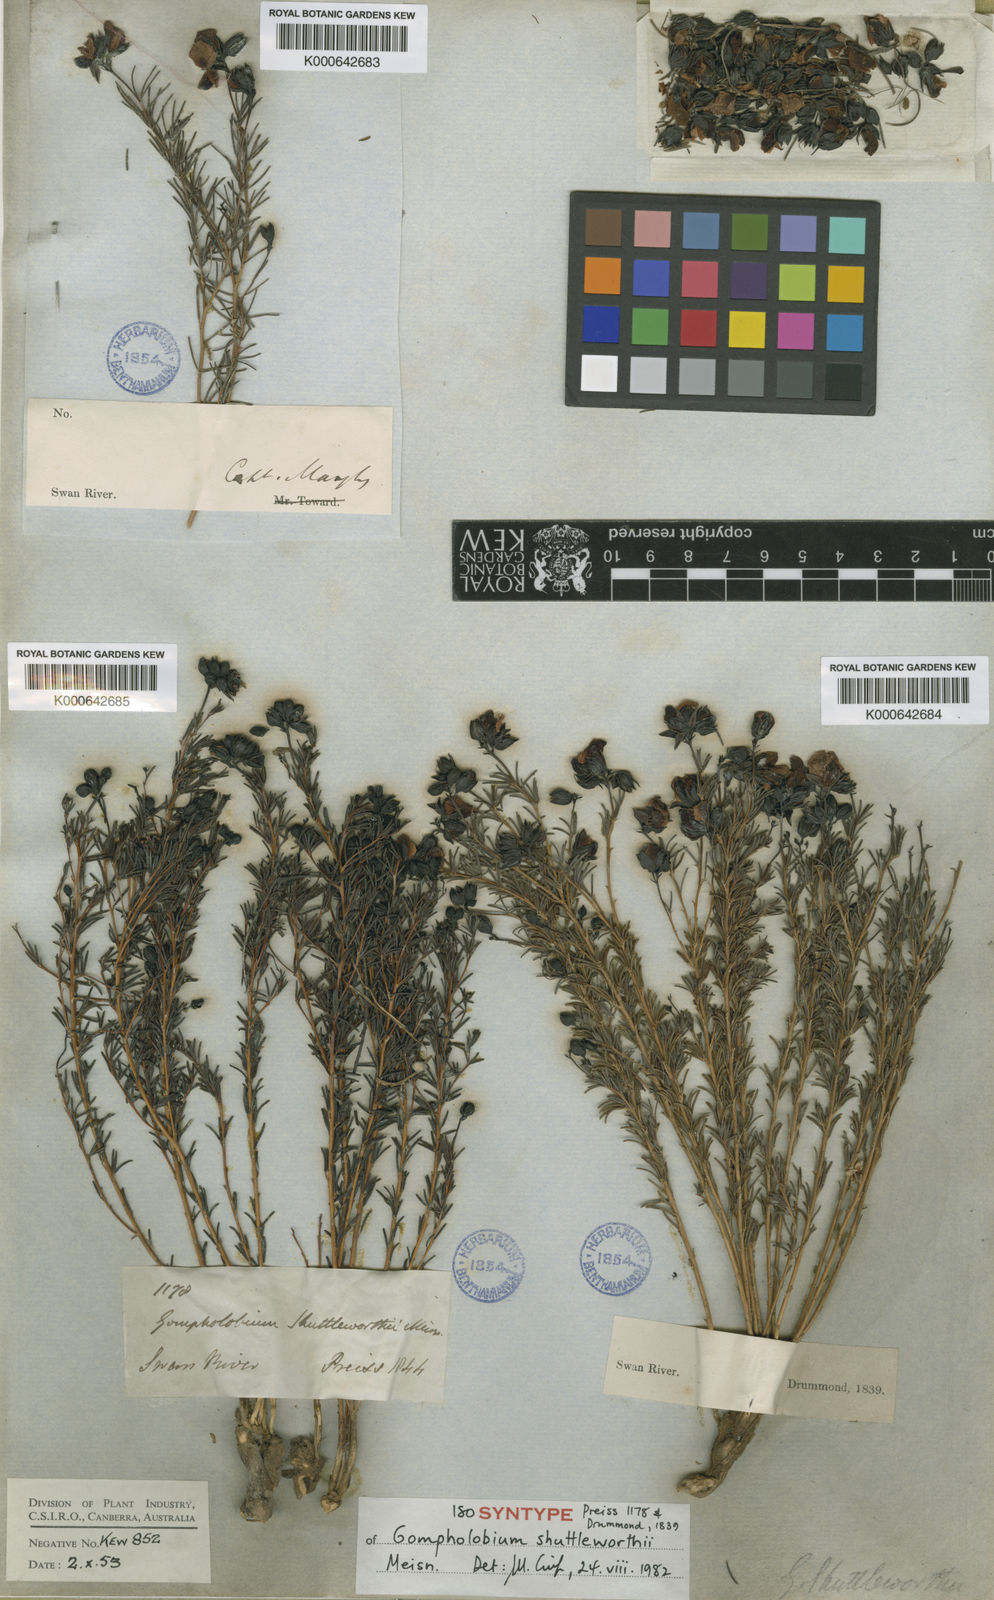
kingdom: Plantae
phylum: Tracheophyta
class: Magnoliopsida
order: Fabales
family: Fabaceae
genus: Gompholobium
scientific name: Gompholobium shuttleworthii
